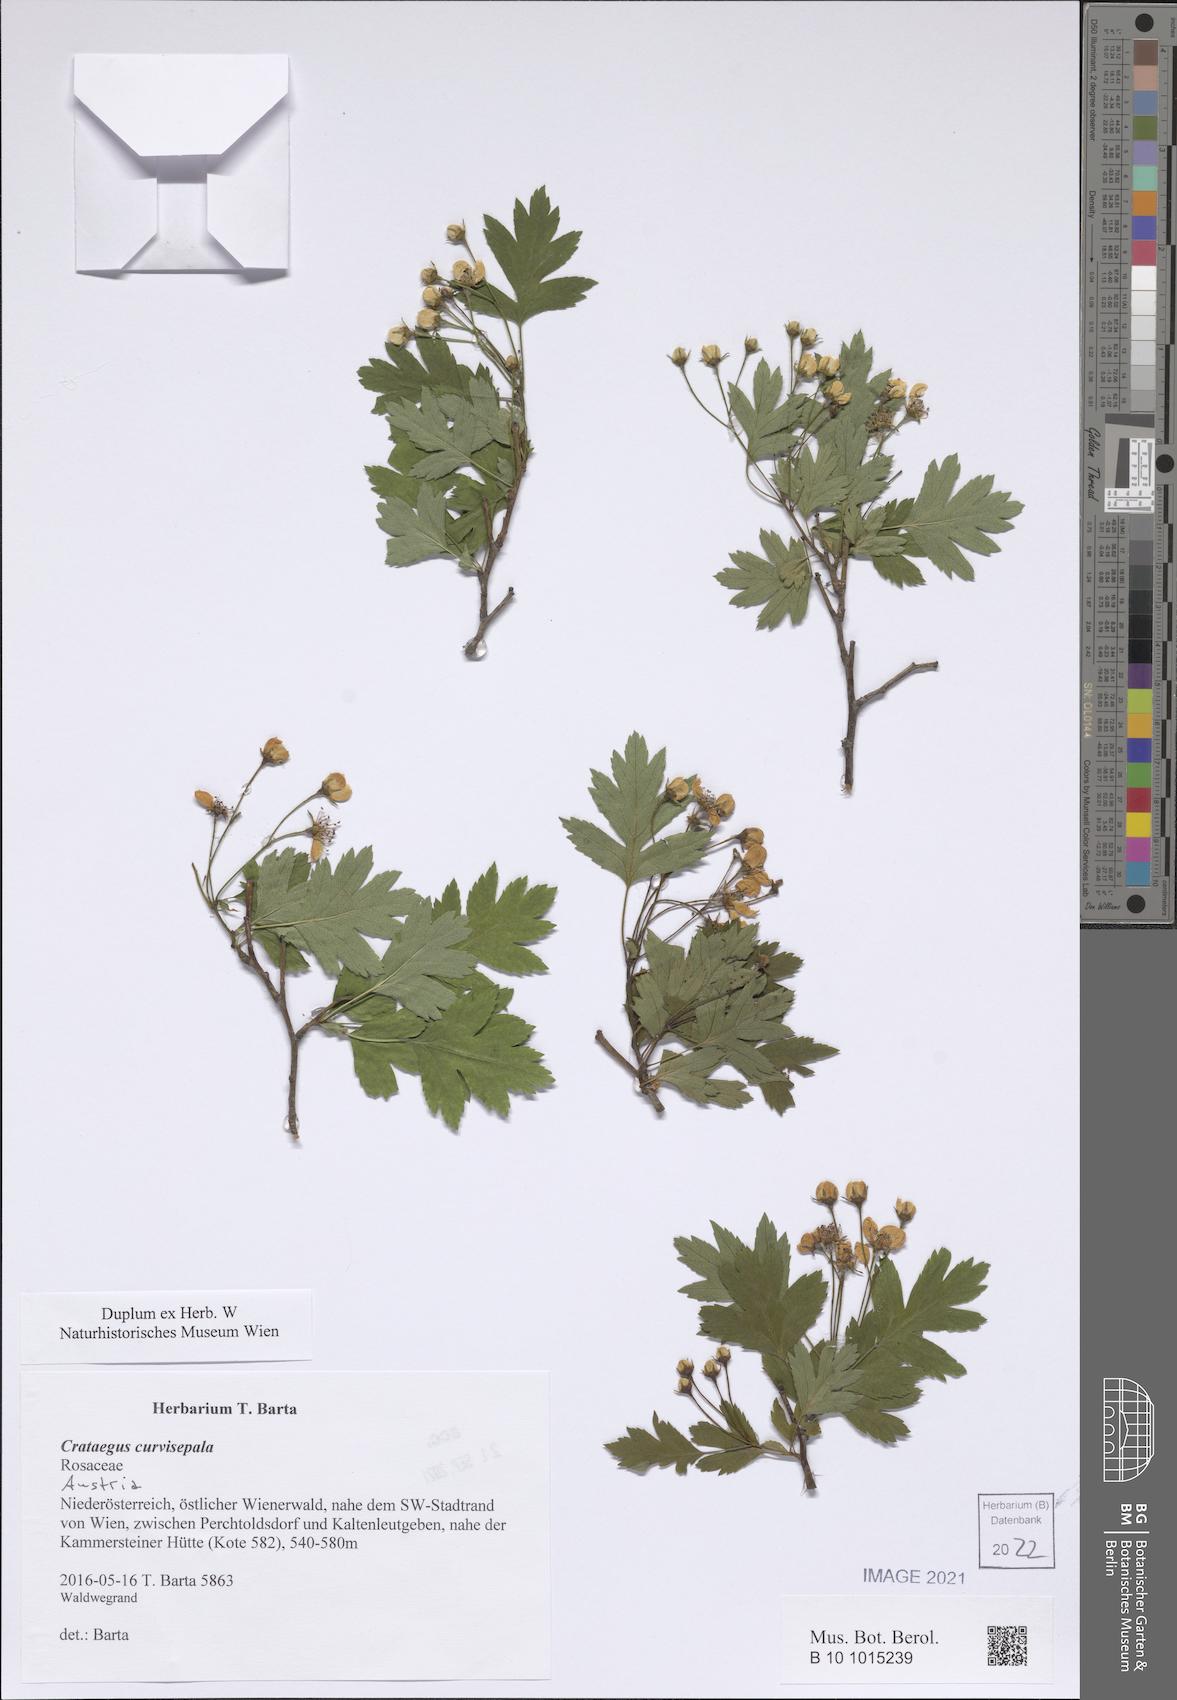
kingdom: Plantae
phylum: Tracheophyta
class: Magnoliopsida
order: Rosales
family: Rosaceae
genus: Crataegus
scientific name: Crataegus rhipidophylla
